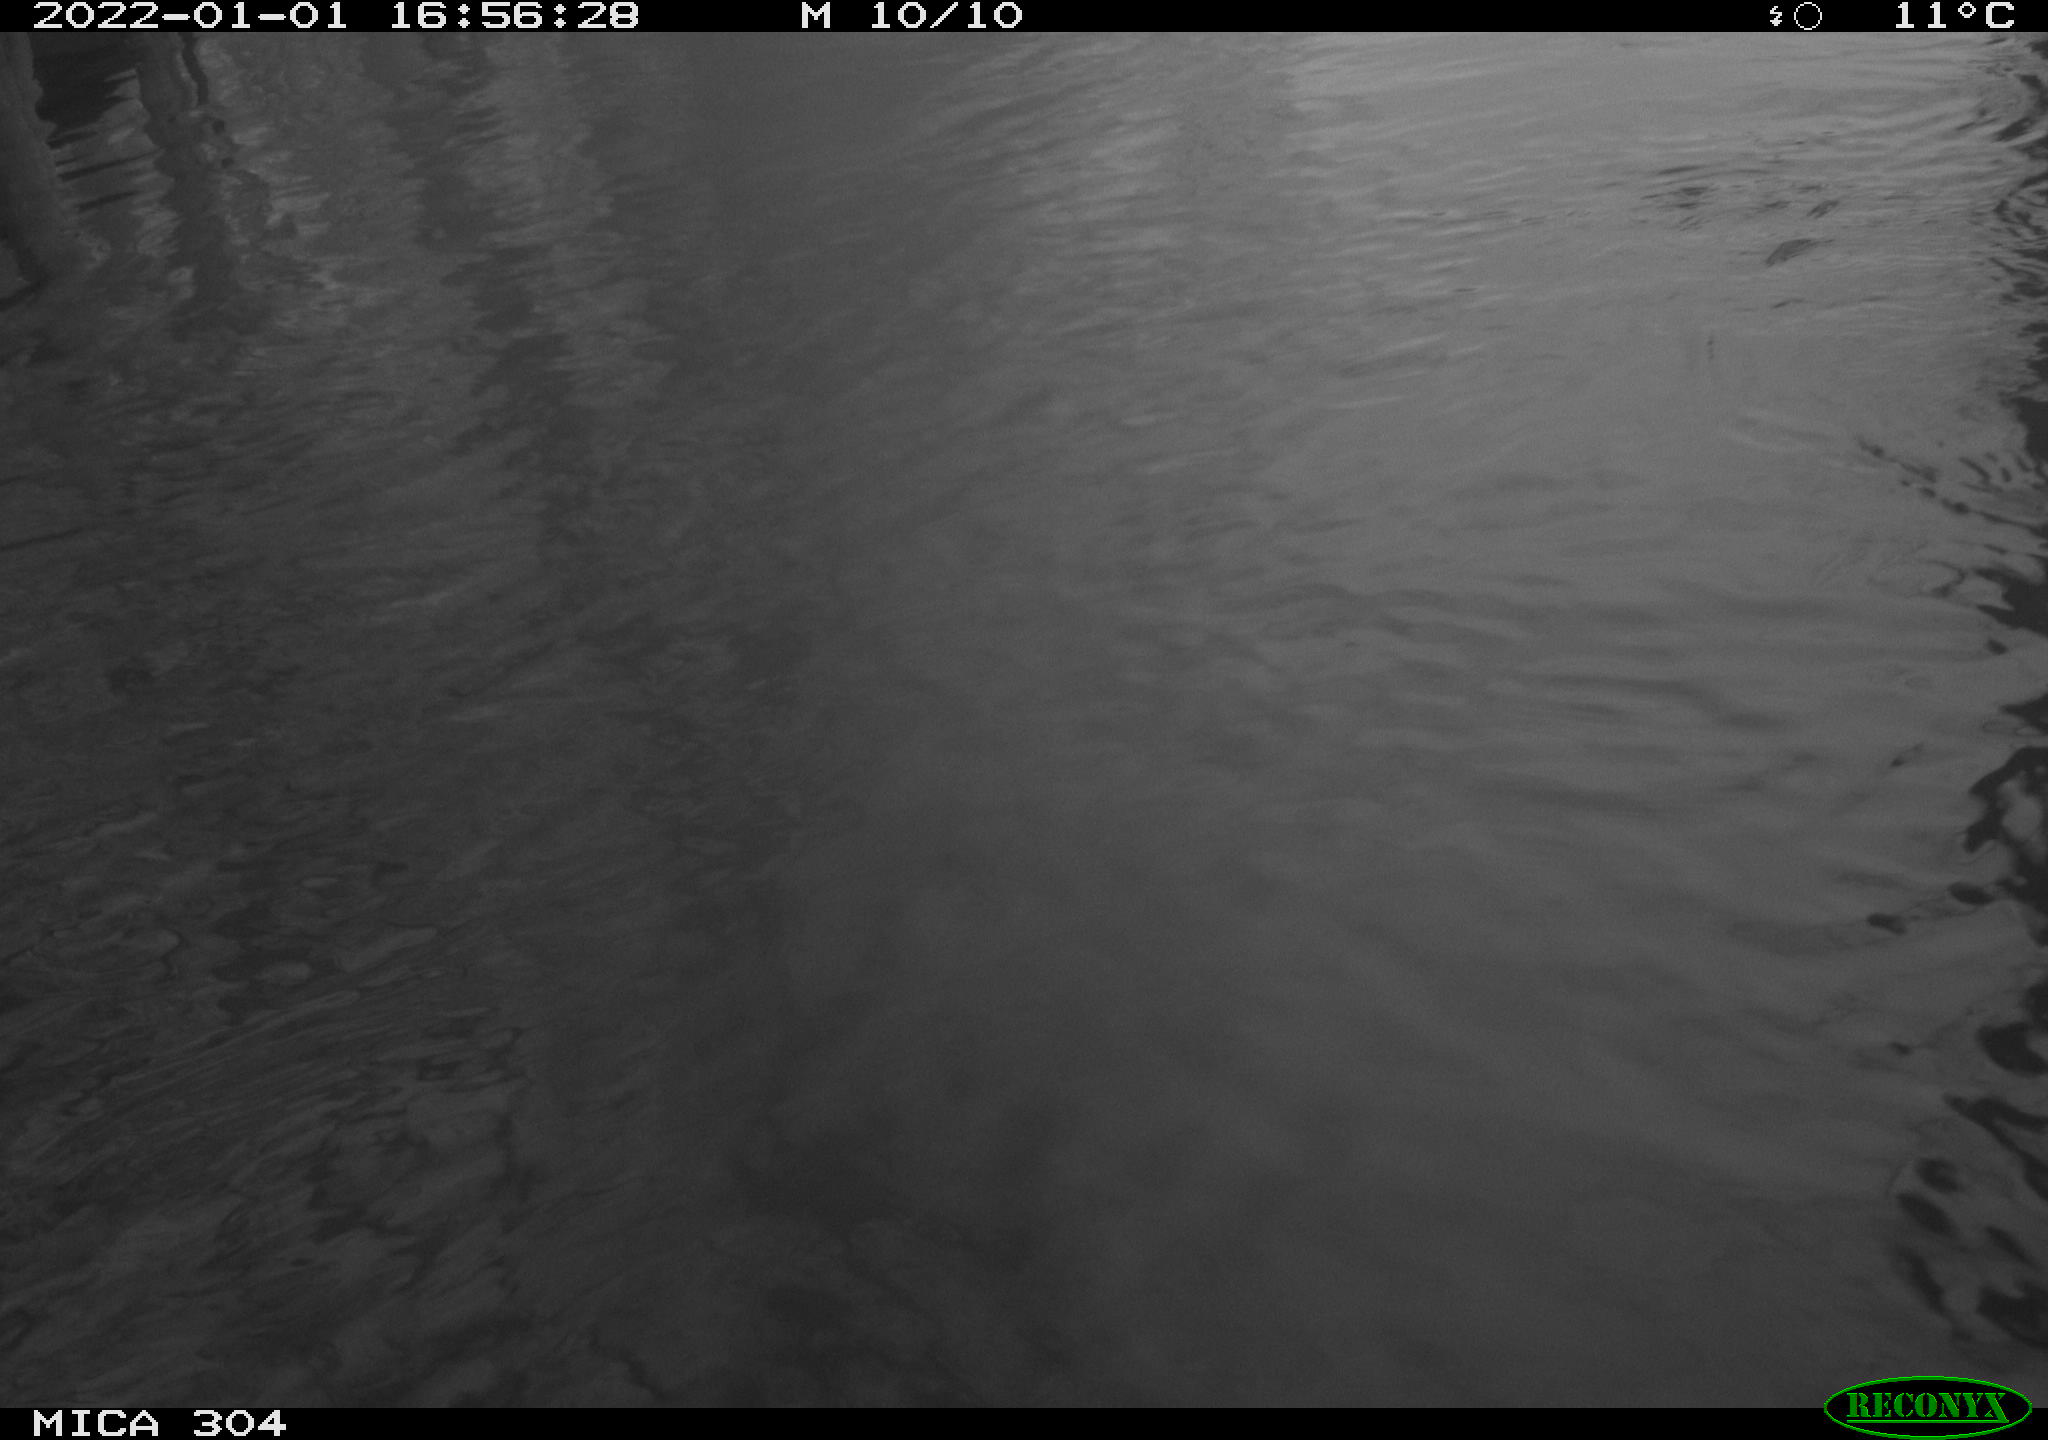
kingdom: Animalia
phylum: Chordata
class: Aves
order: Gruiformes
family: Rallidae
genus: Fulica
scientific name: Fulica atra
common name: Eurasian coot
